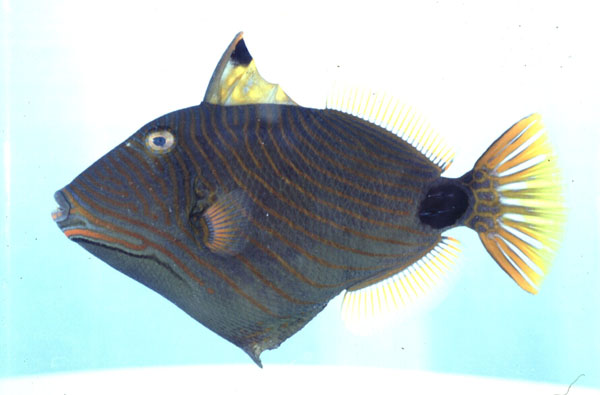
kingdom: Animalia
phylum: Chordata
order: Tetraodontiformes
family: Balistidae
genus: Balistapus
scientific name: Balistapus undulatus
